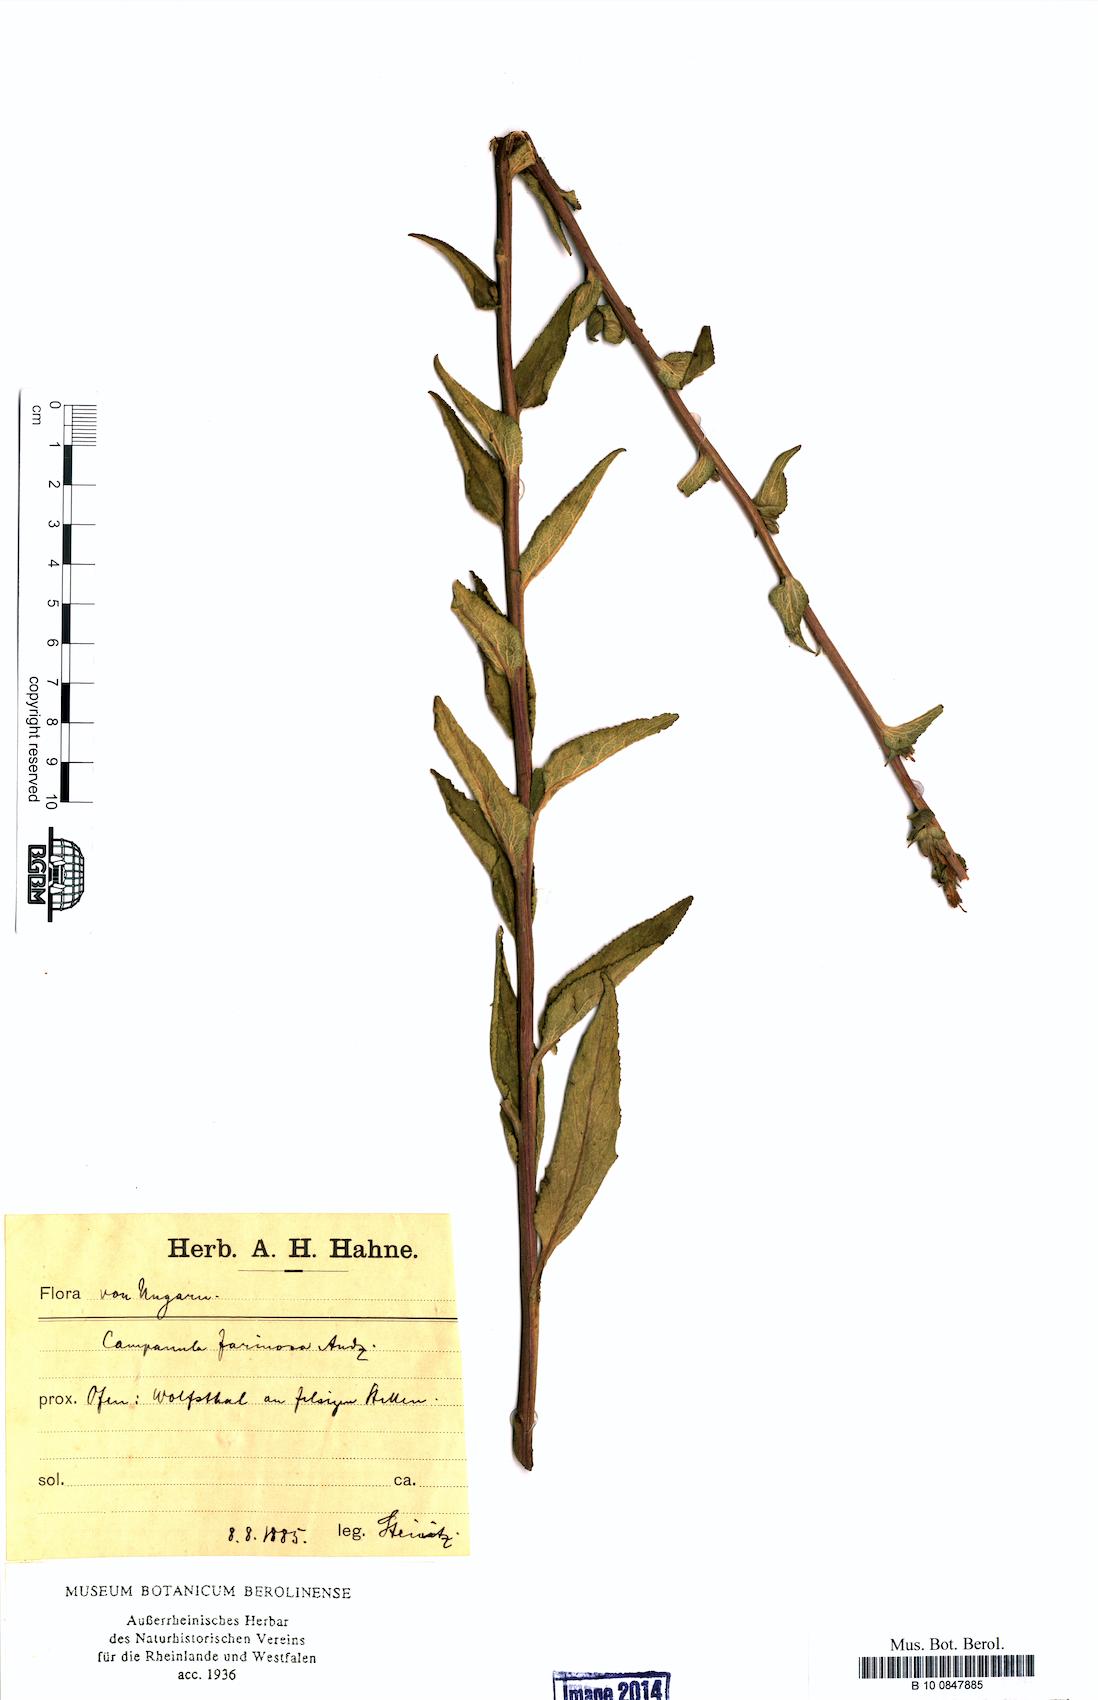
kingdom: Plantae
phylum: Tracheophyta
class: Magnoliopsida
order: Asterales
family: Campanulaceae
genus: Campanula
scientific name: Campanula glomerata
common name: Clustered bellflower
